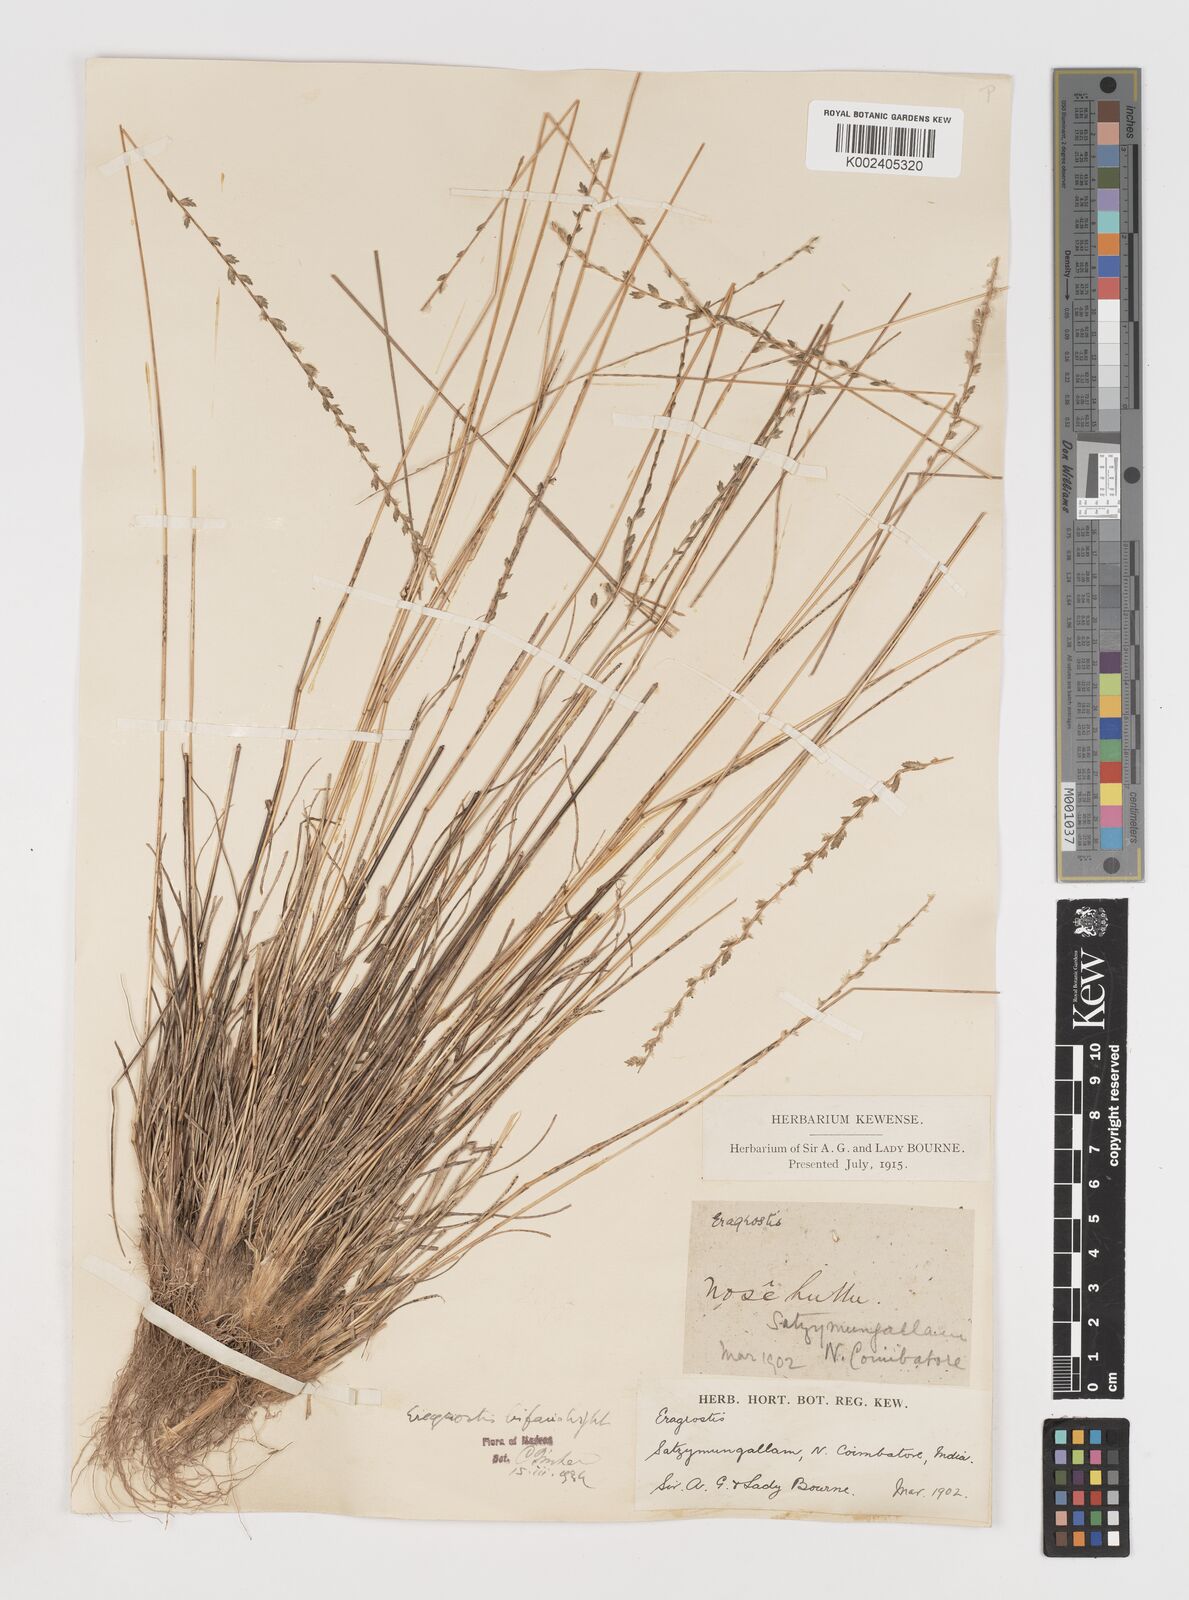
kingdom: Plantae
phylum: Tracheophyta
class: Liliopsida
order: Poales
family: Poaceae
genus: Eragrostiella
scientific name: Eragrostiella bifaria
